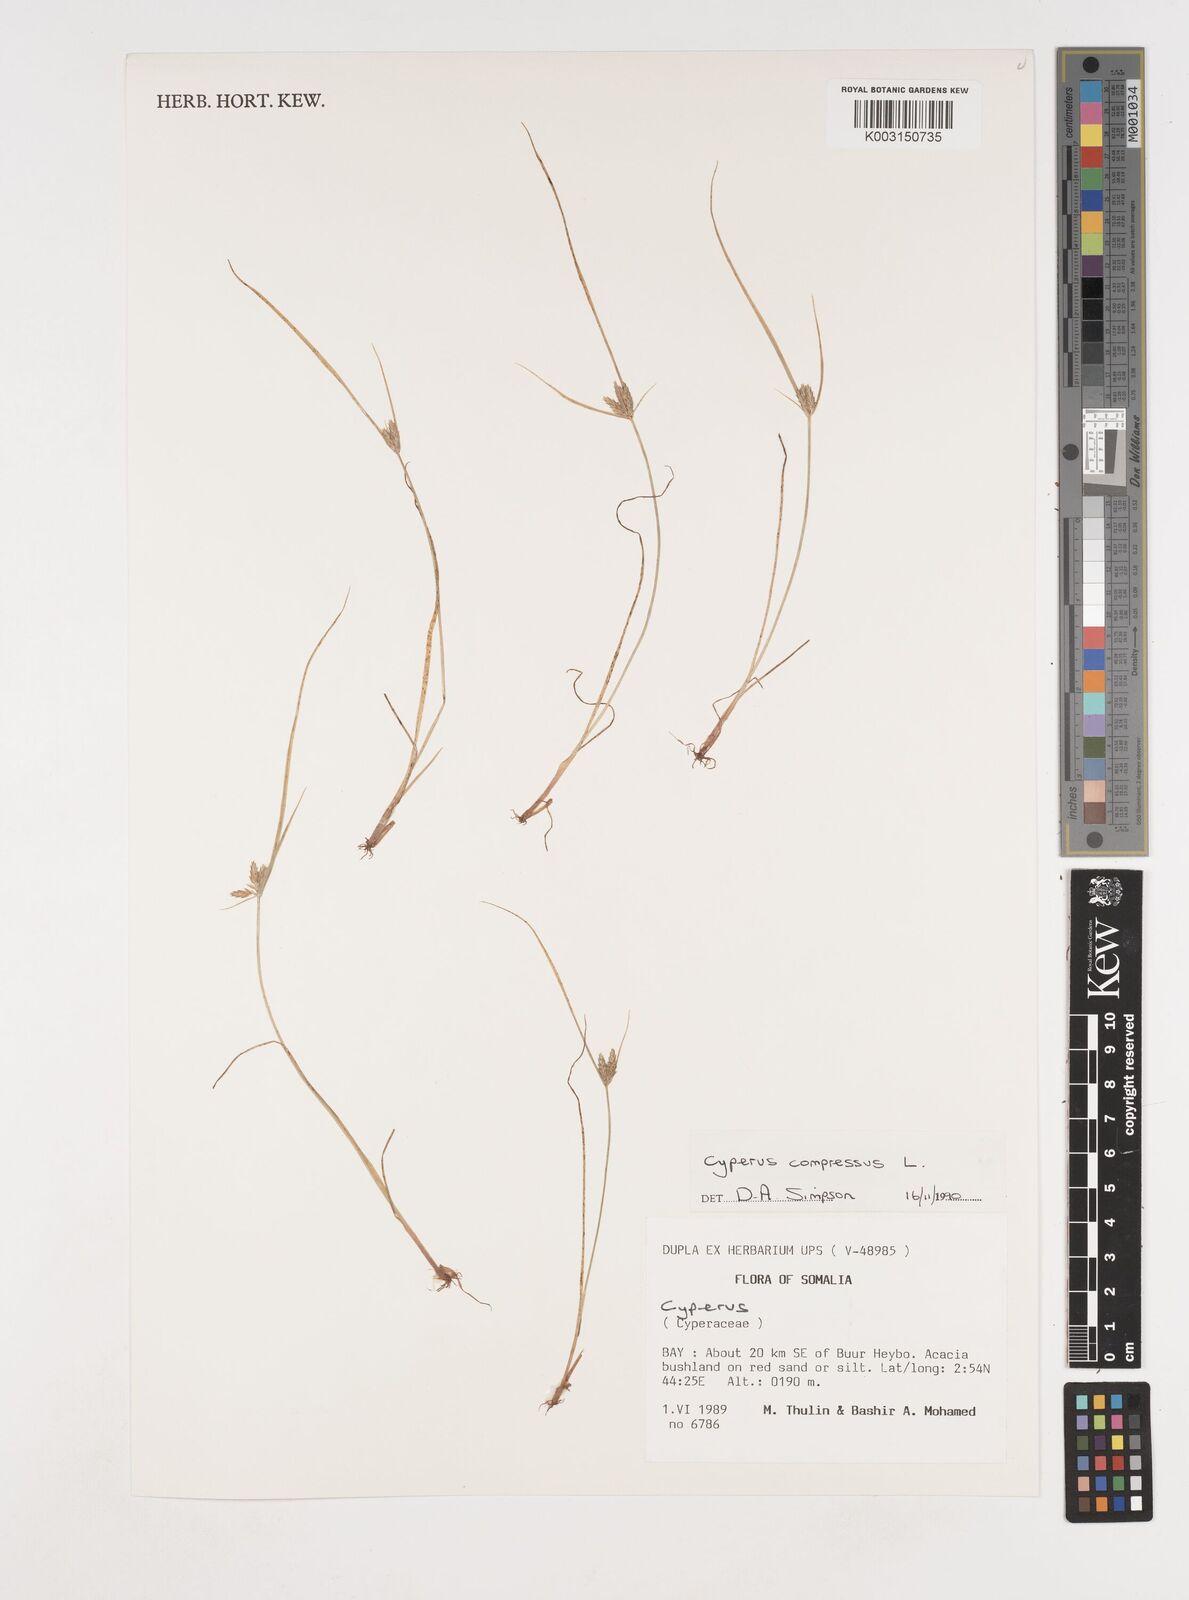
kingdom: Plantae
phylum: Tracheophyta
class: Liliopsida
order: Poales
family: Cyperaceae
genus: Cyperus
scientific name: Cyperus compressus
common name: Poorland flatsedge
